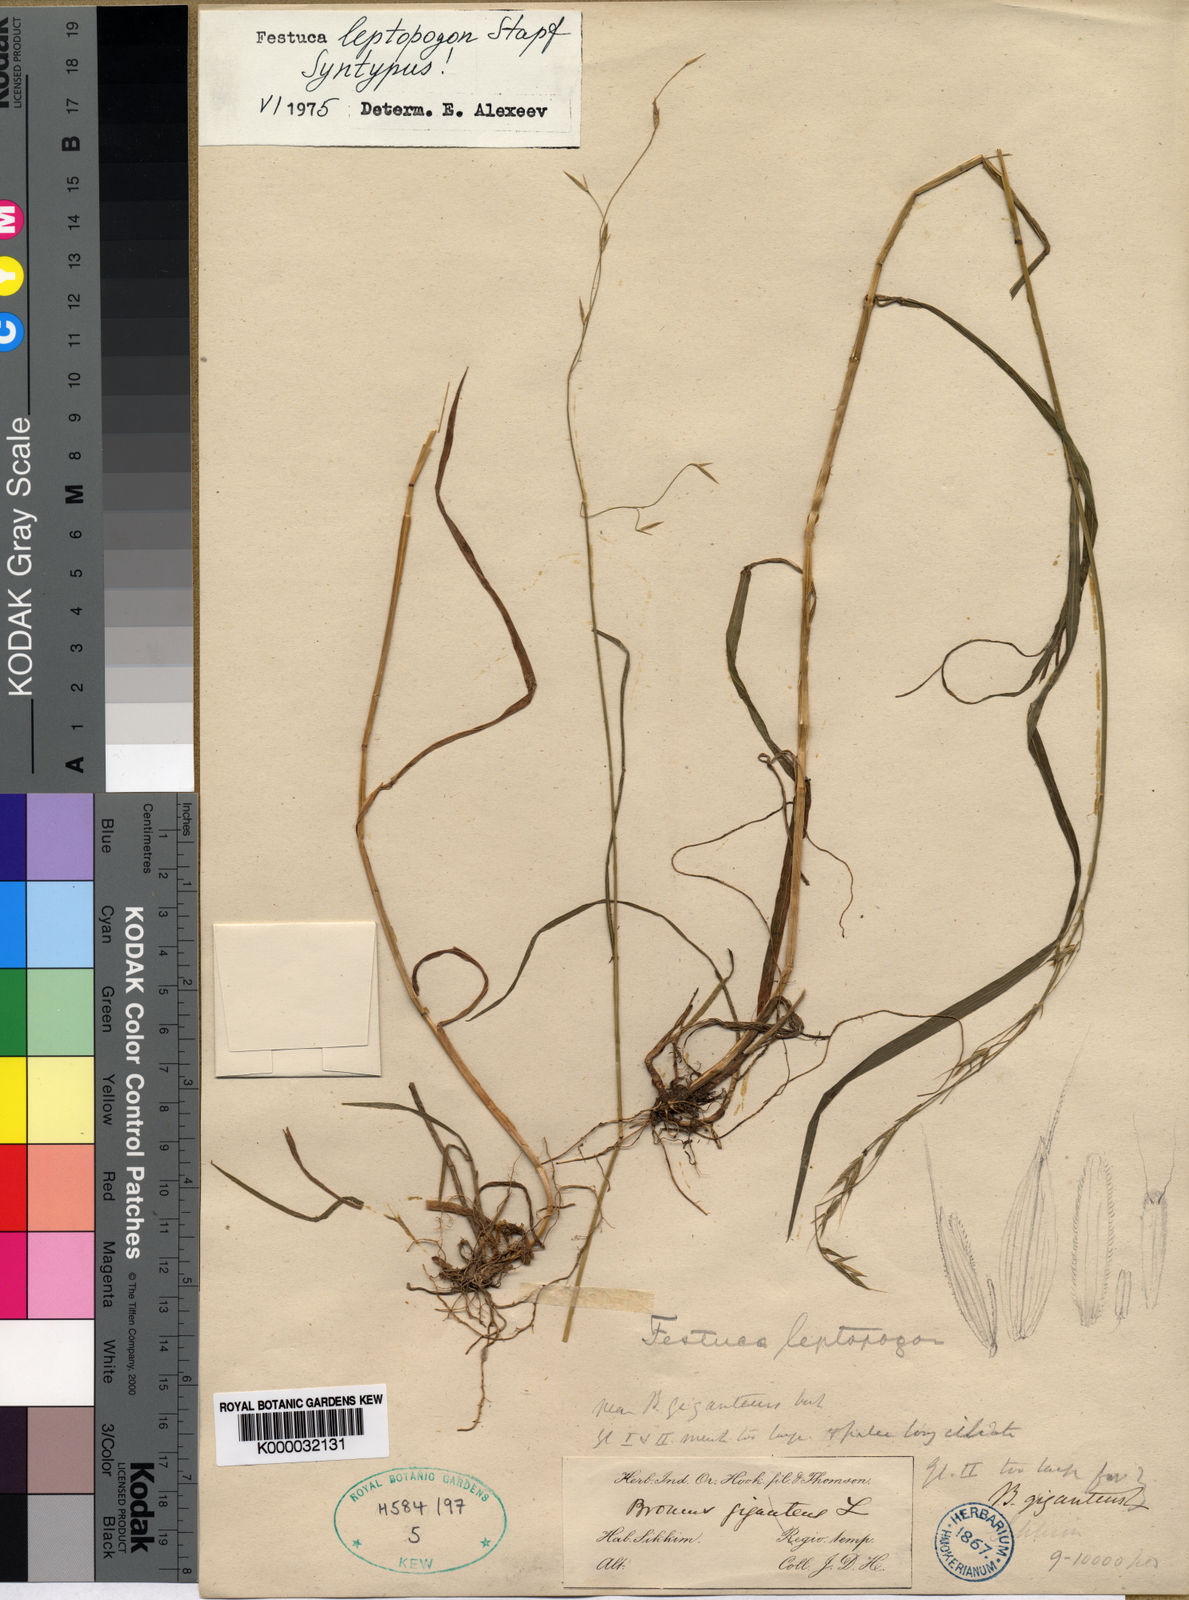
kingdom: Plantae
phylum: Tracheophyta
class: Liliopsida
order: Poales
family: Poaceae
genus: Festuca
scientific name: Festuca leptopogon
